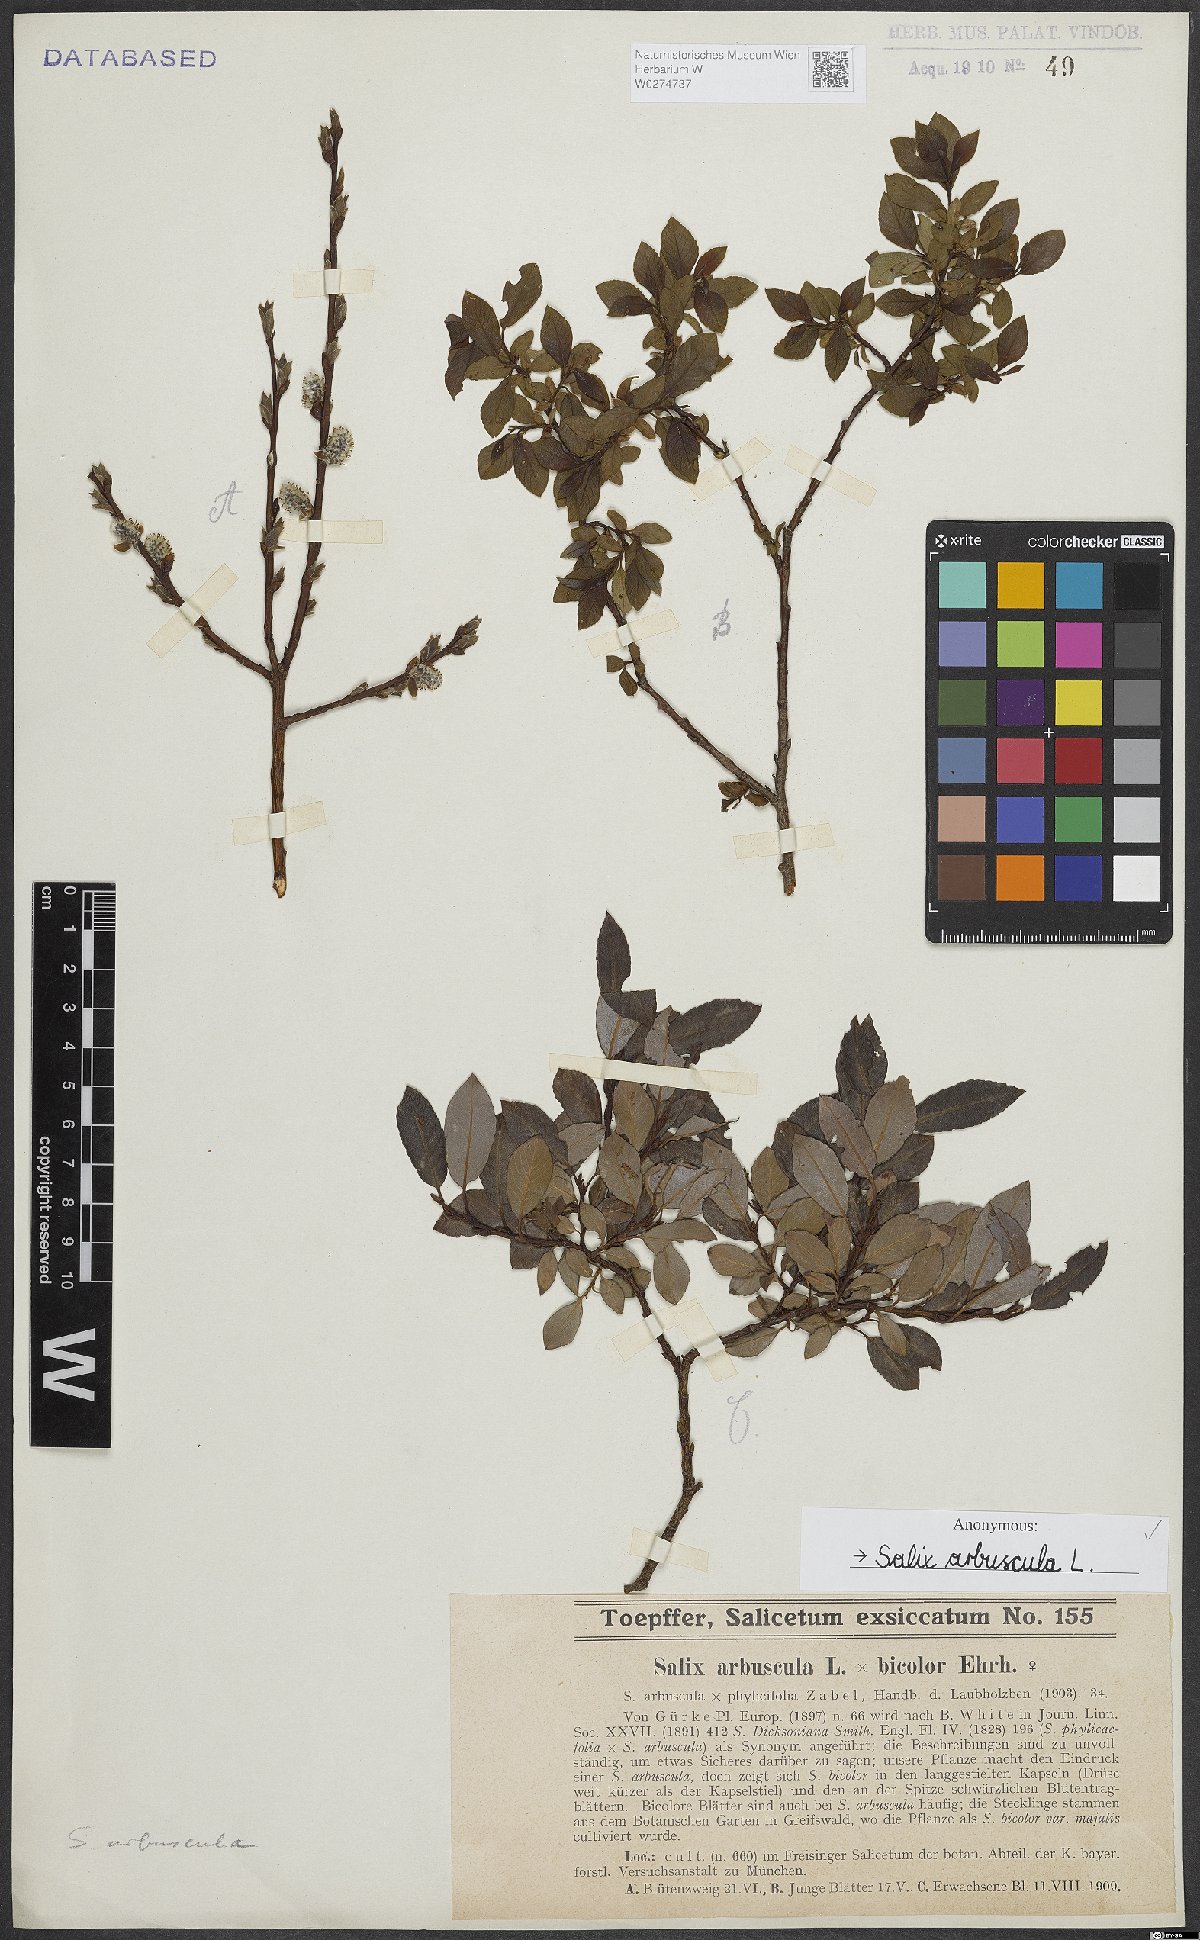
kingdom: Plantae
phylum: Tracheophyta
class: Magnoliopsida
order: Malpighiales
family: Salicaceae
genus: Salix
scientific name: Salix arbuscula
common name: Mountain willow
